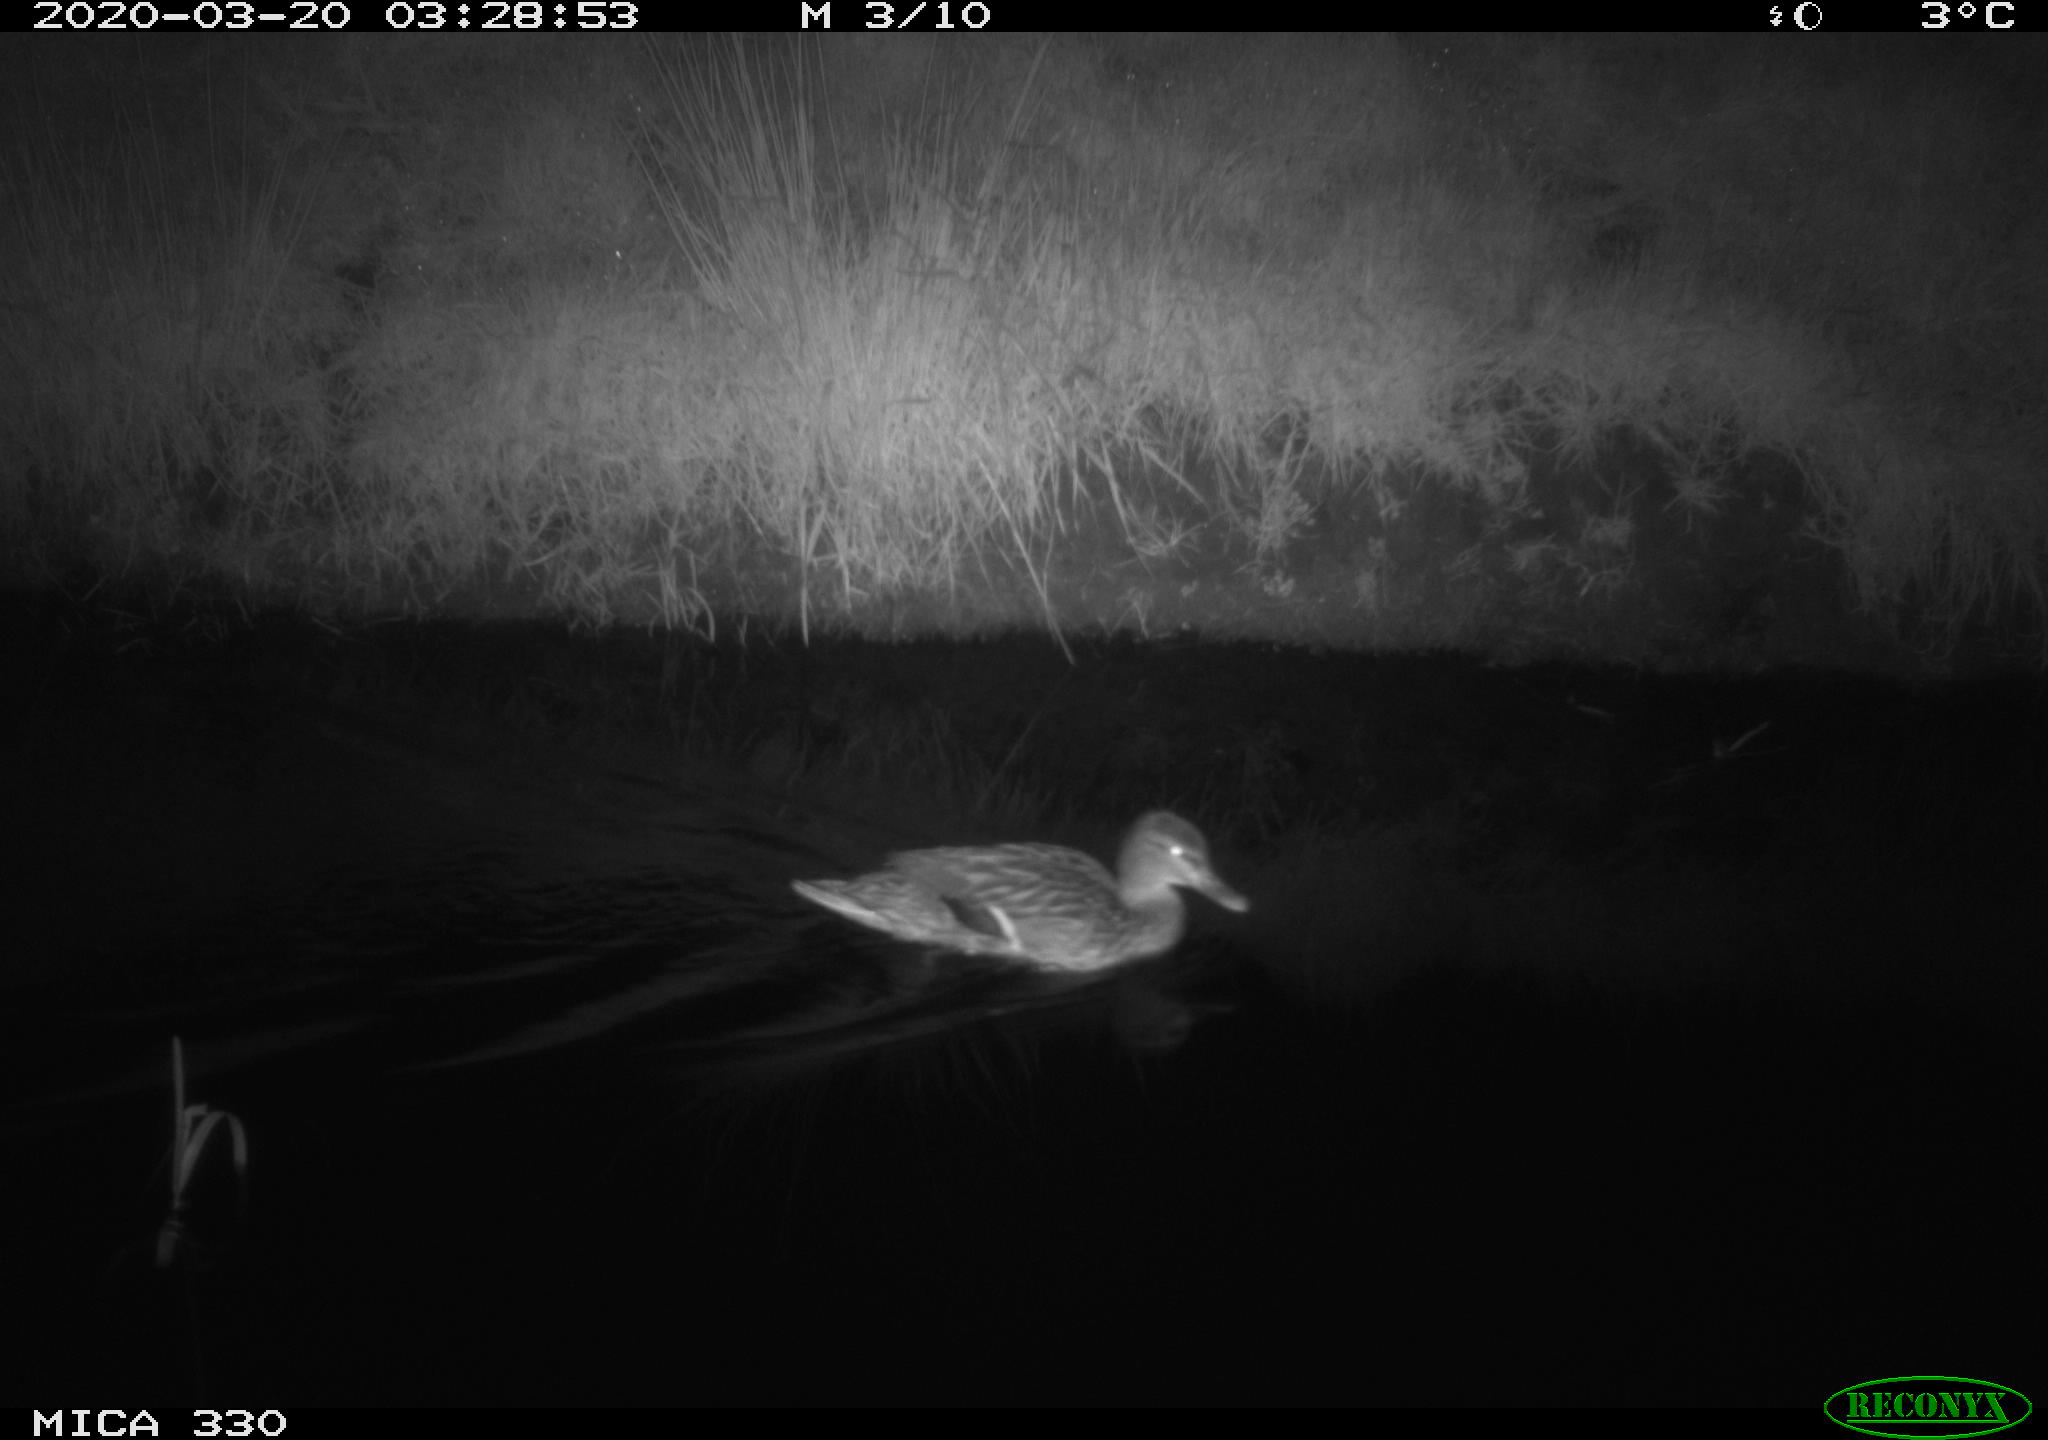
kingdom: Animalia
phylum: Chordata
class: Aves
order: Anseriformes
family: Anatidae
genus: Anas
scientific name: Anas platyrhynchos
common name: Mallard
